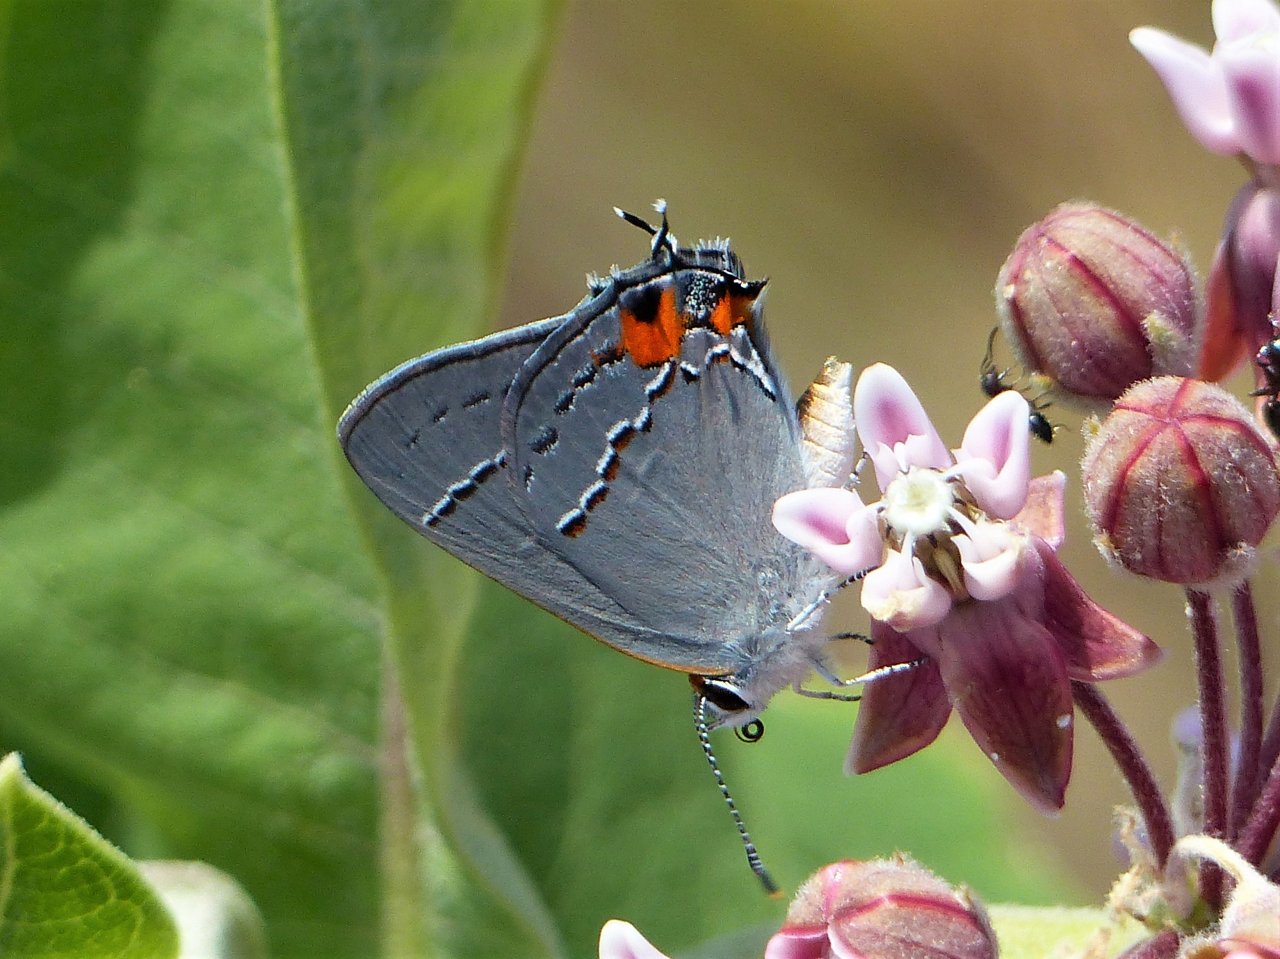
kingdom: Animalia
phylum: Arthropoda
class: Insecta
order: Lepidoptera
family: Lycaenidae
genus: Strymon
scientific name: Strymon melinus
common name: Gray Hairstreak
